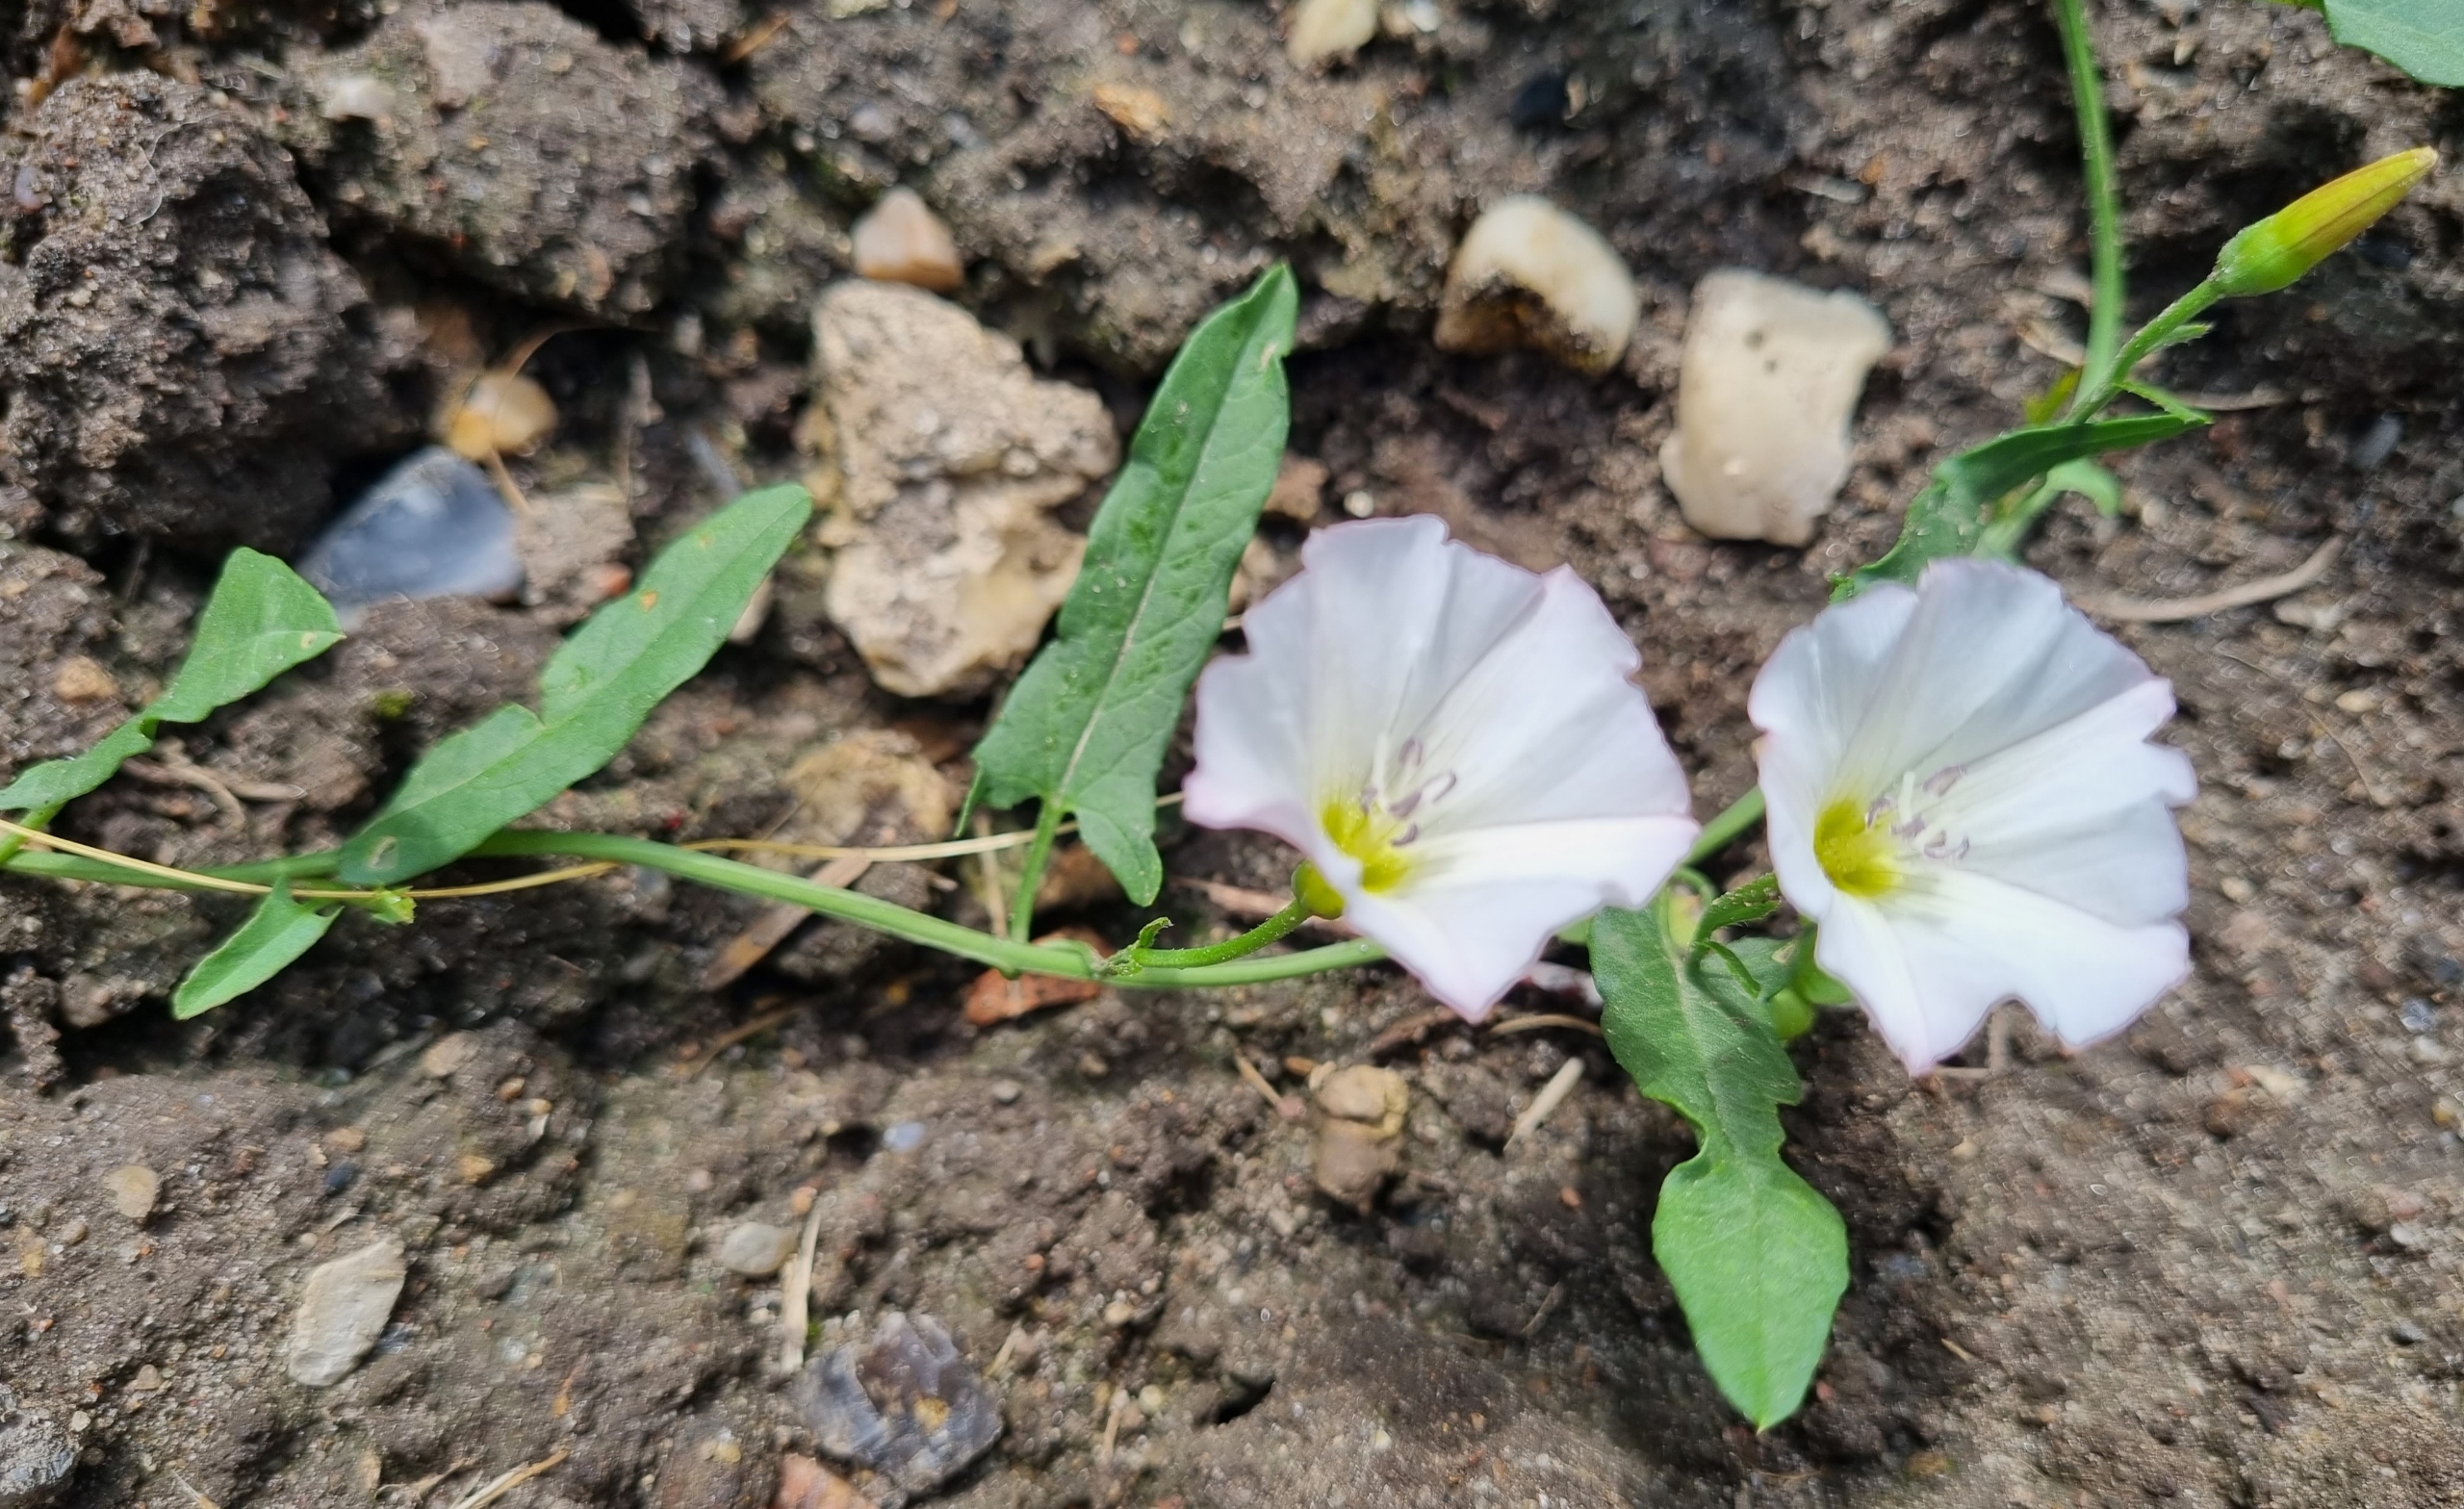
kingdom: Plantae
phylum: Tracheophyta
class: Magnoliopsida
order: Solanales
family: Convolvulaceae
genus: Convolvulus
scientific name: Convolvulus arvensis
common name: Ager-snerle
